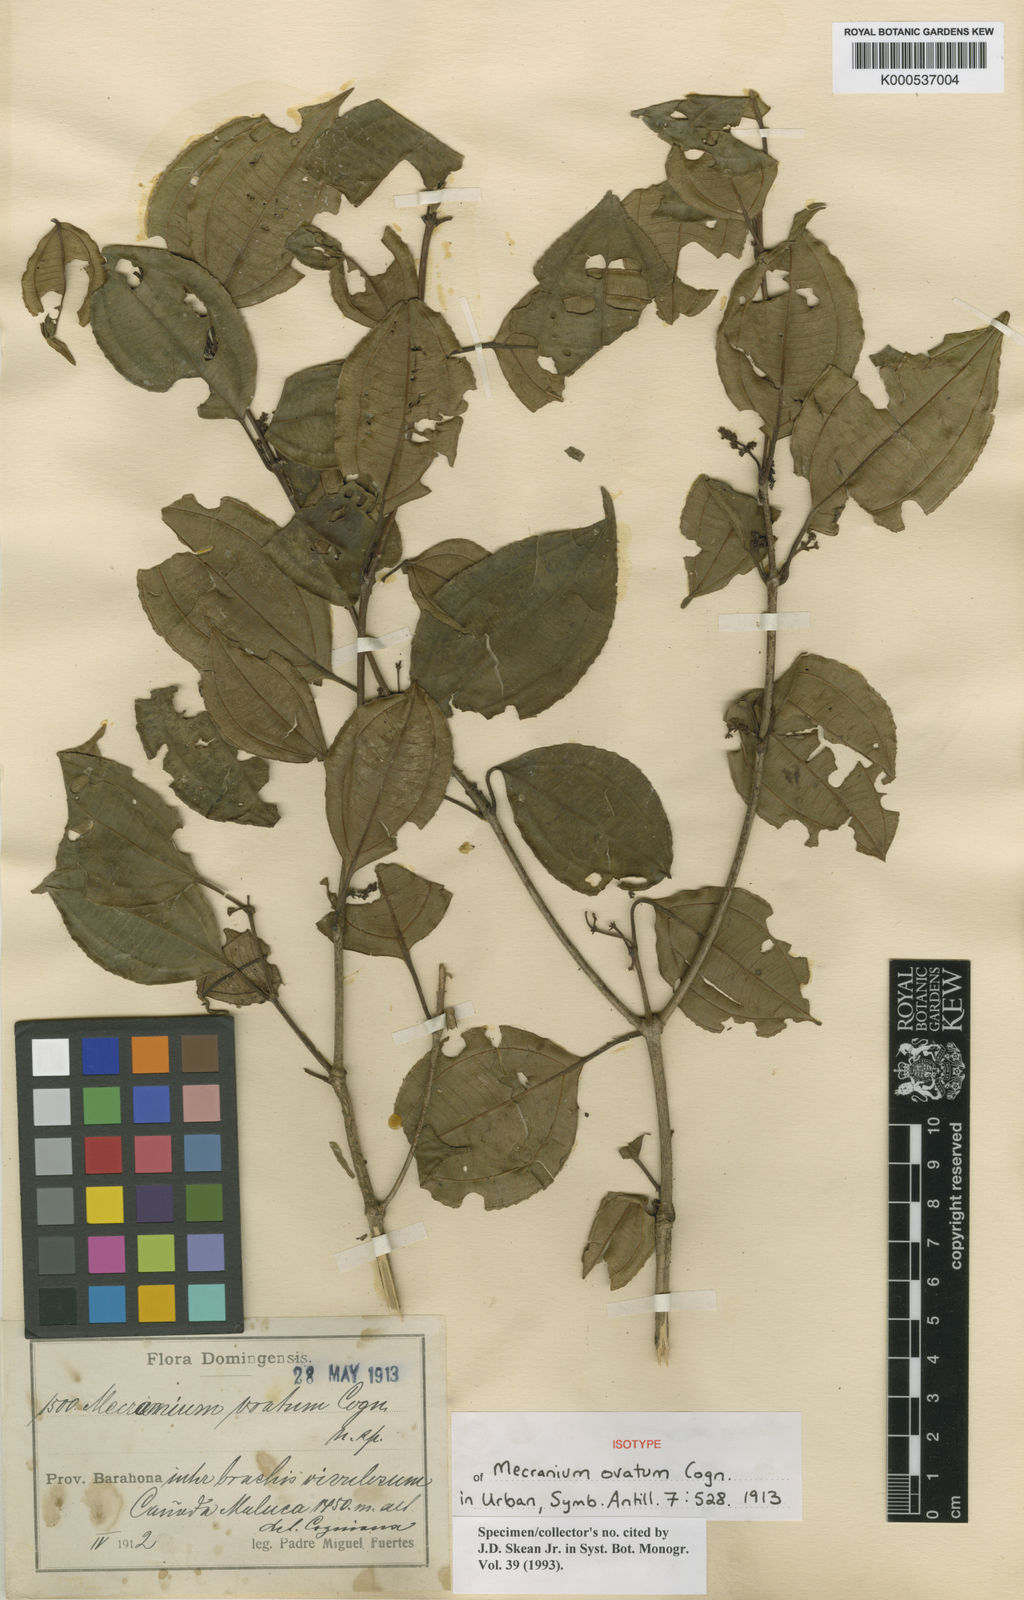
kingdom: Plantae
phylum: Tracheophyta
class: Magnoliopsida
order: Myrtales
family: Melastomataceae
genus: Miconia
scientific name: Miconia bahorucensis
